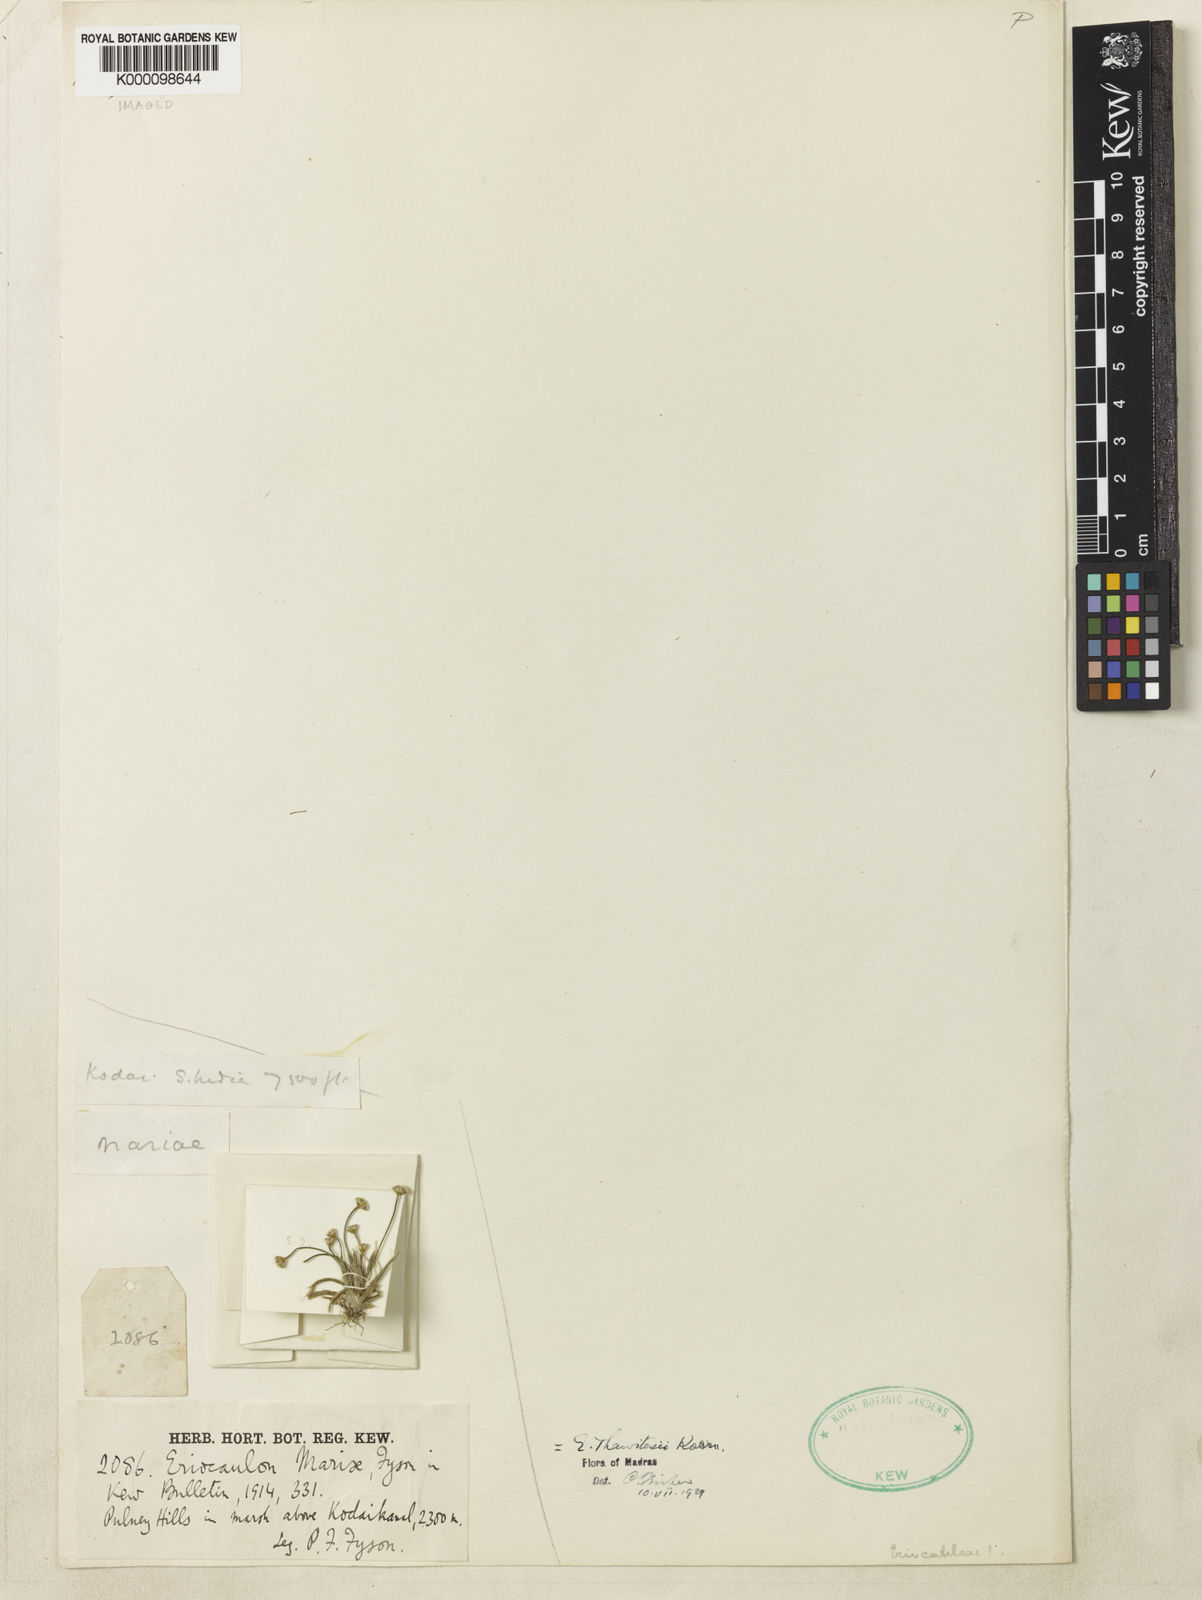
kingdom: Plantae
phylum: Tracheophyta
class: Liliopsida
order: Poales
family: Eriocaulaceae
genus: Eriocaulon
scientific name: Eriocaulon
